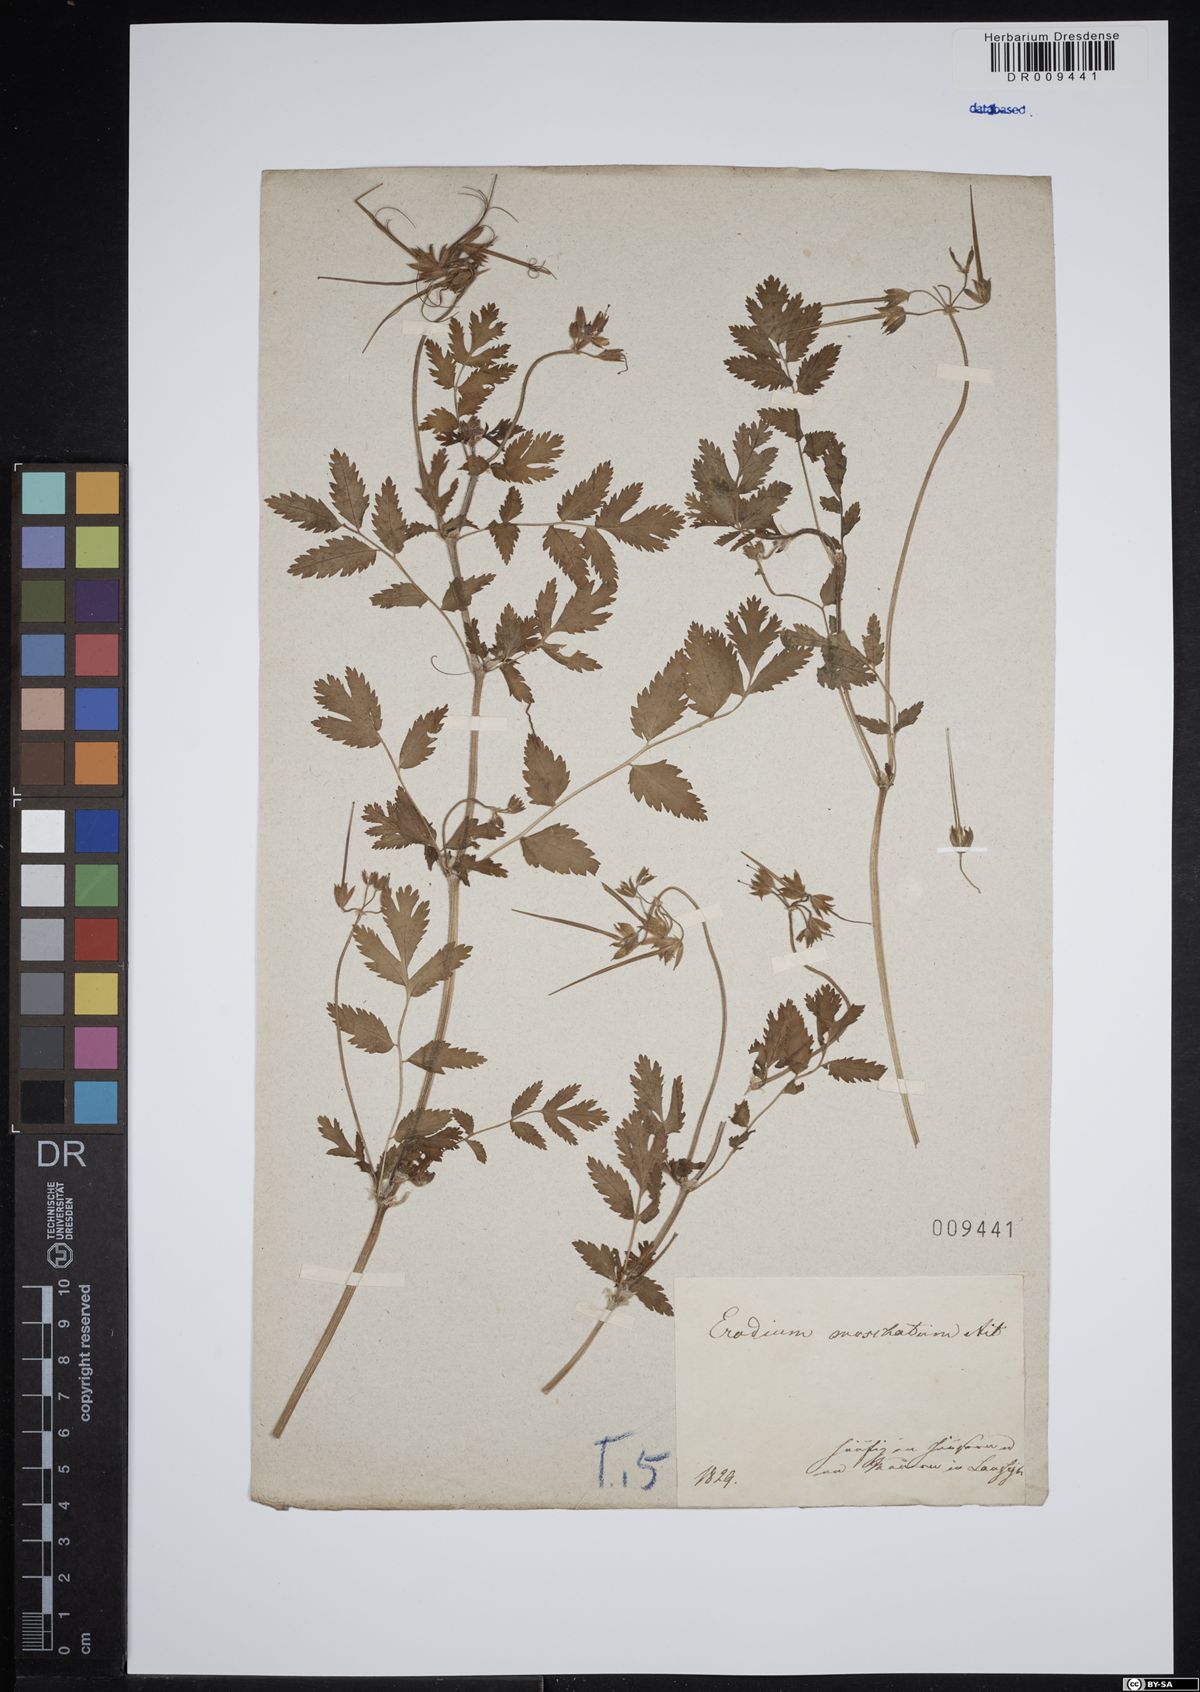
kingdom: Plantae
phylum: Tracheophyta
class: Magnoliopsida
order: Geraniales
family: Geraniaceae
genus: Erodium
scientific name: Erodium moschatum
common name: Musk stork's-bill
